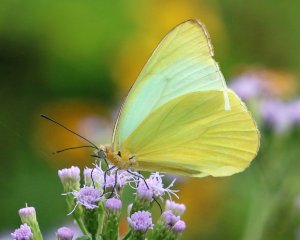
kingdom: Animalia
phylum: Arthropoda
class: Insecta
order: Lepidoptera
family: Pieridae
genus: Melete
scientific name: Melete lycimnia
